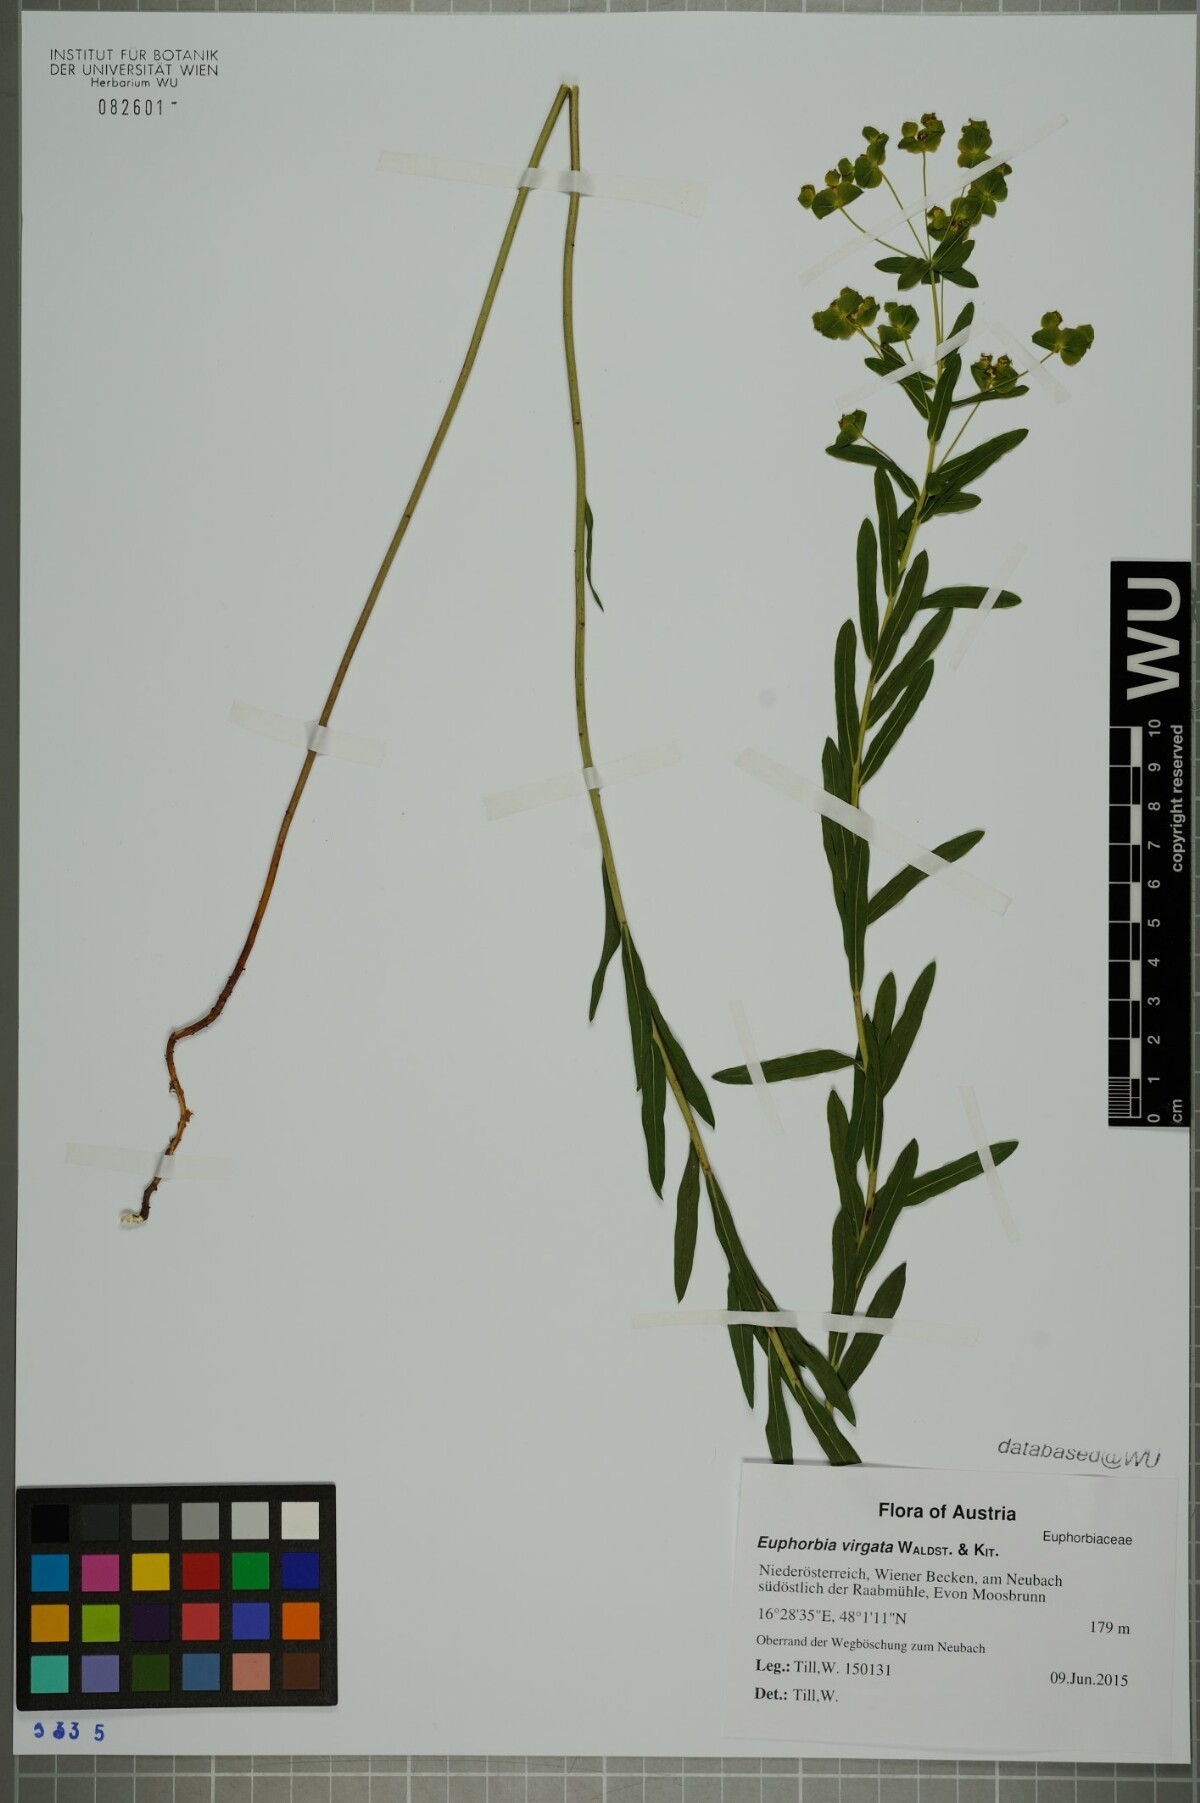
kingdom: Plantae
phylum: Tracheophyta
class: Magnoliopsida
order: Malpighiales
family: Euphorbiaceae
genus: Euphorbia
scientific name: Euphorbia virgata
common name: Leafy spurge
